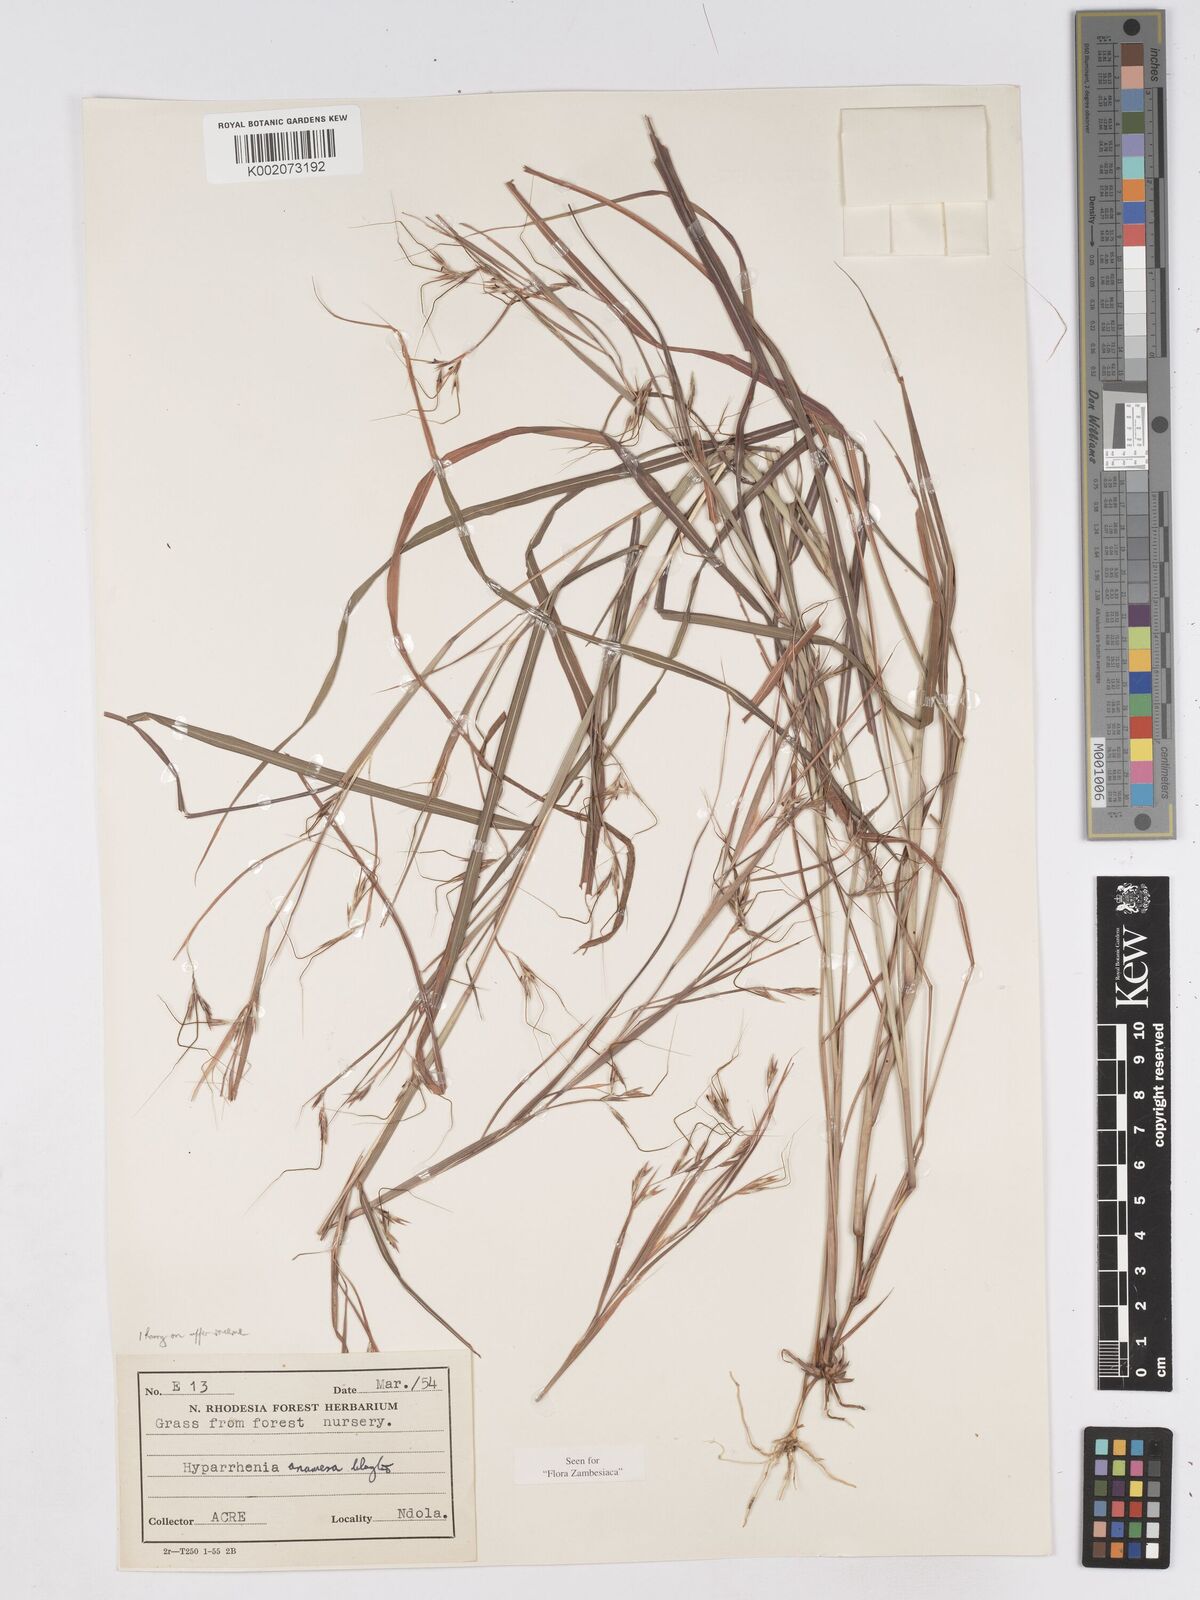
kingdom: Plantae
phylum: Tracheophyta
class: Liliopsida
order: Poales
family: Poaceae
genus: Hyparrhenia
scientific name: Hyparrhenia anamesa
